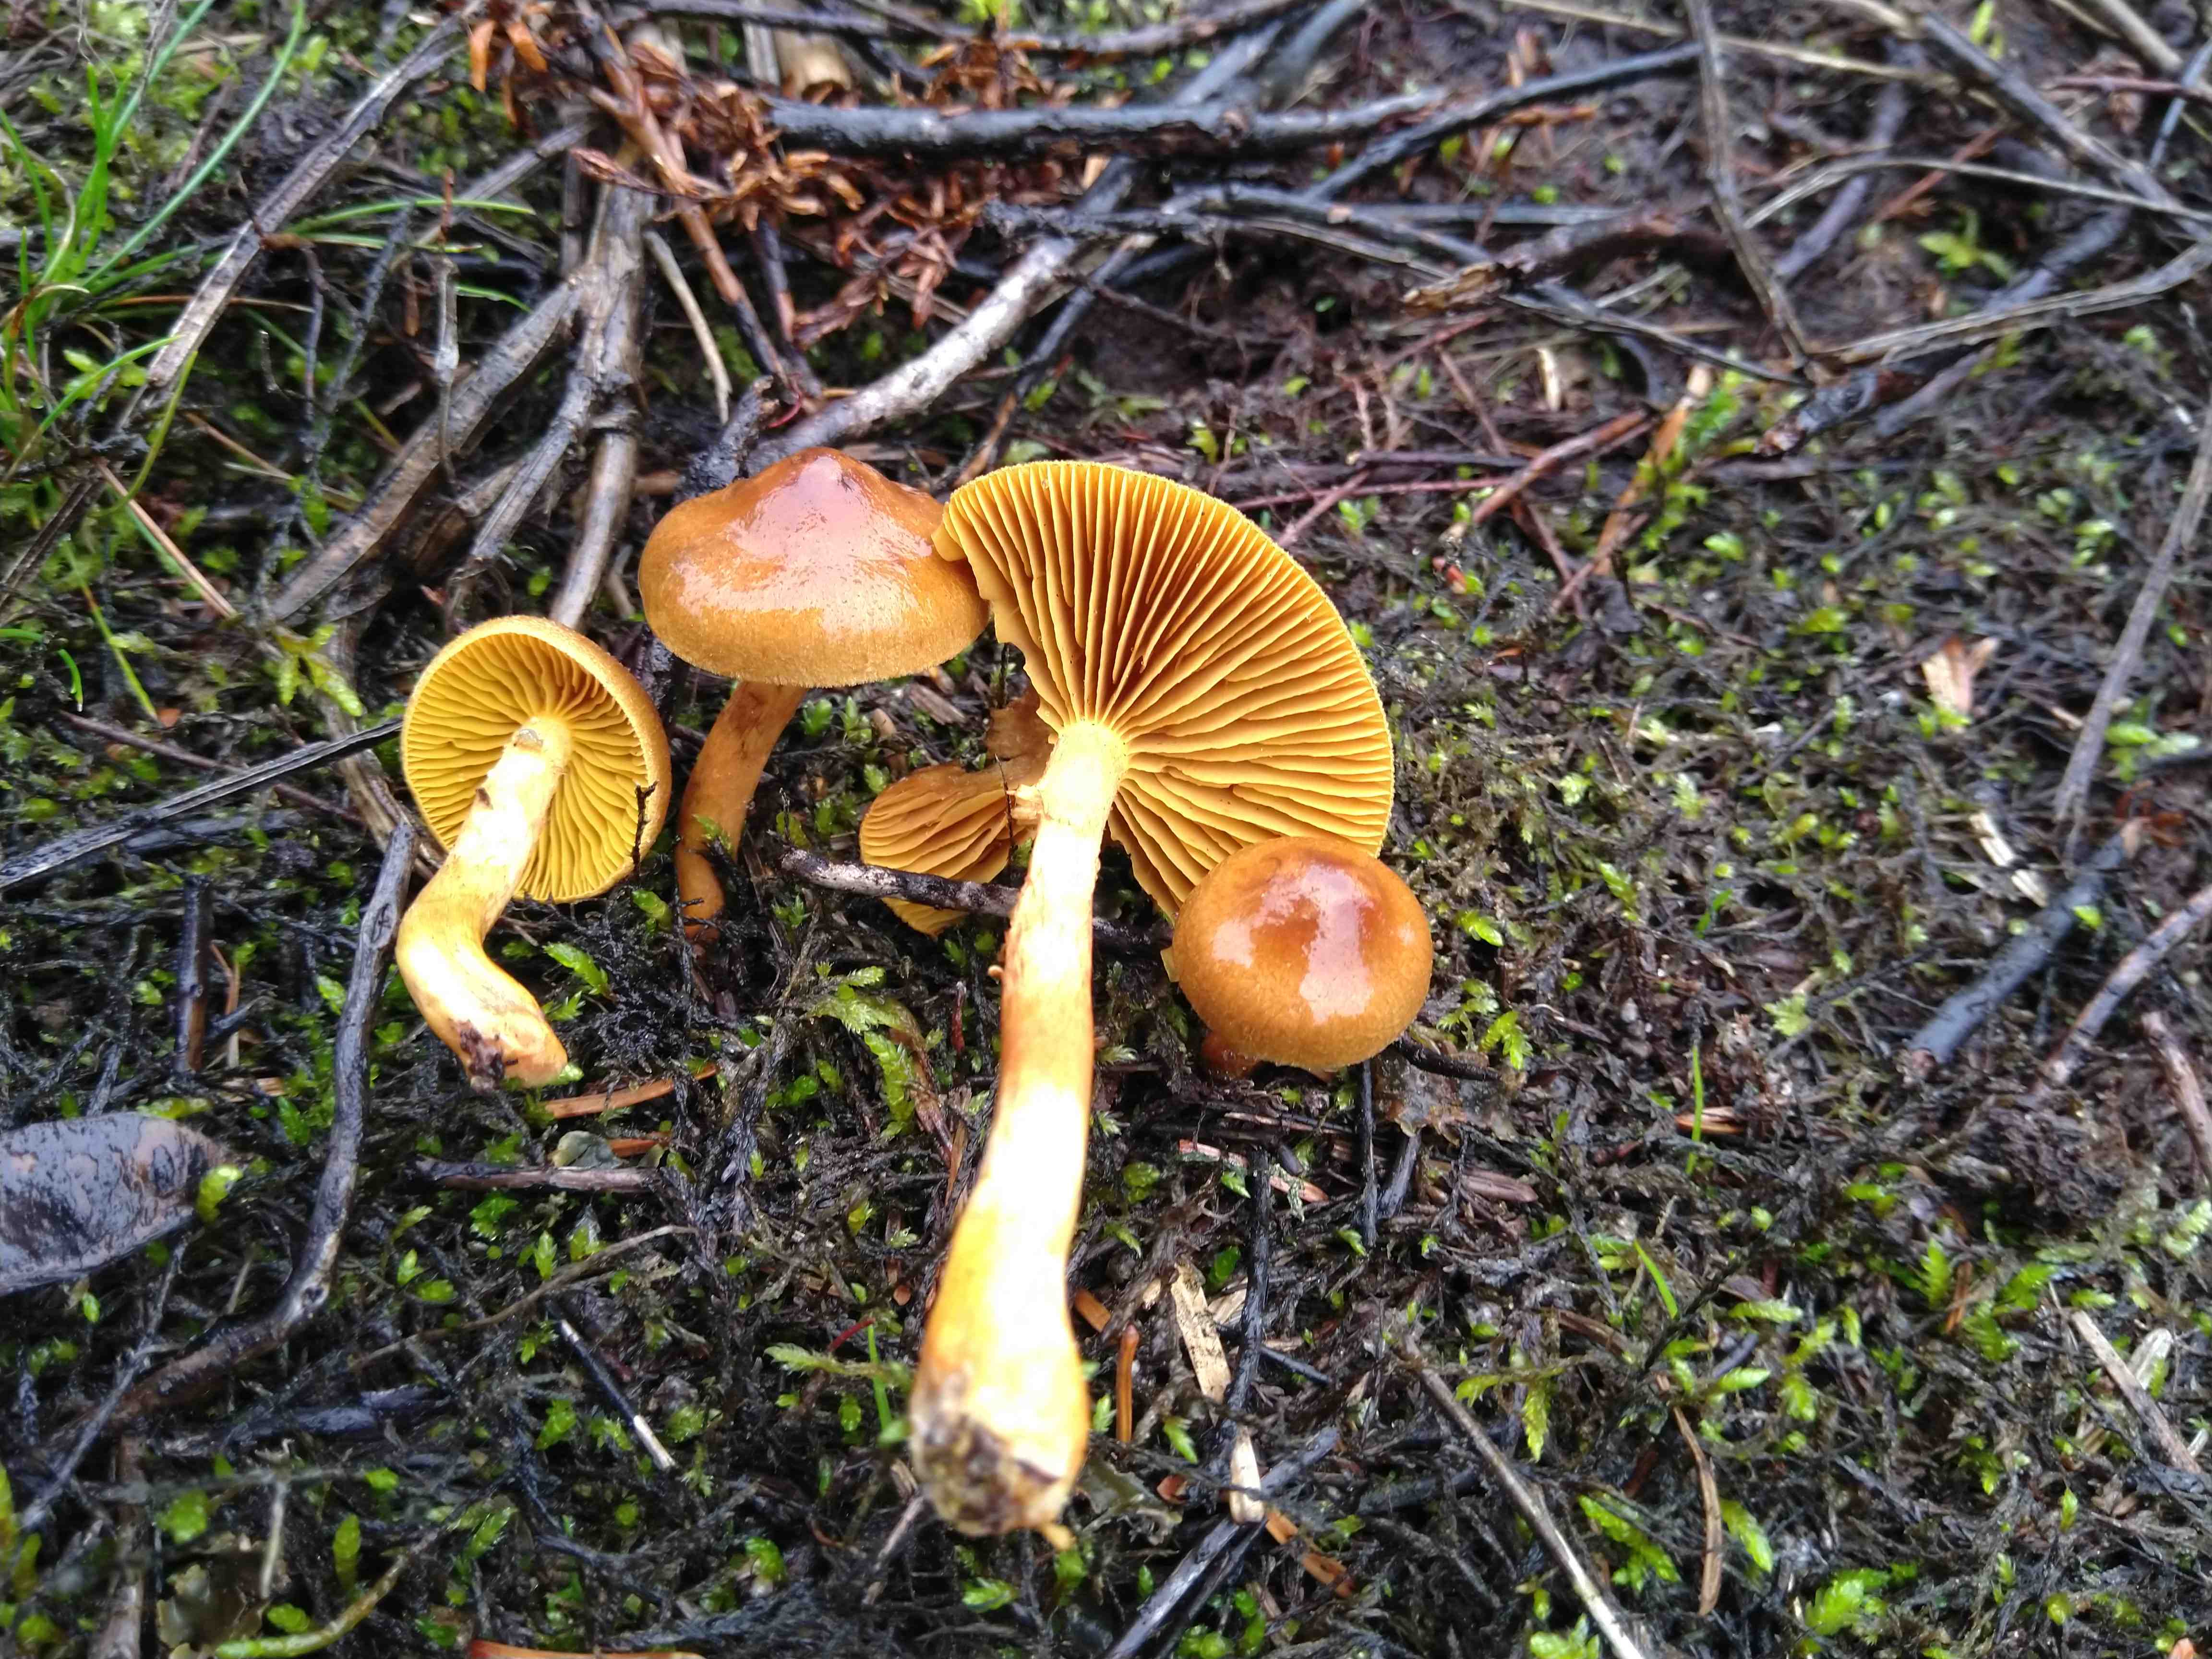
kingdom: Fungi
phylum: Basidiomycota
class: Agaricomycetes
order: Agaricales
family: Cortinariaceae
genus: Cortinarius
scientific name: Cortinarius
